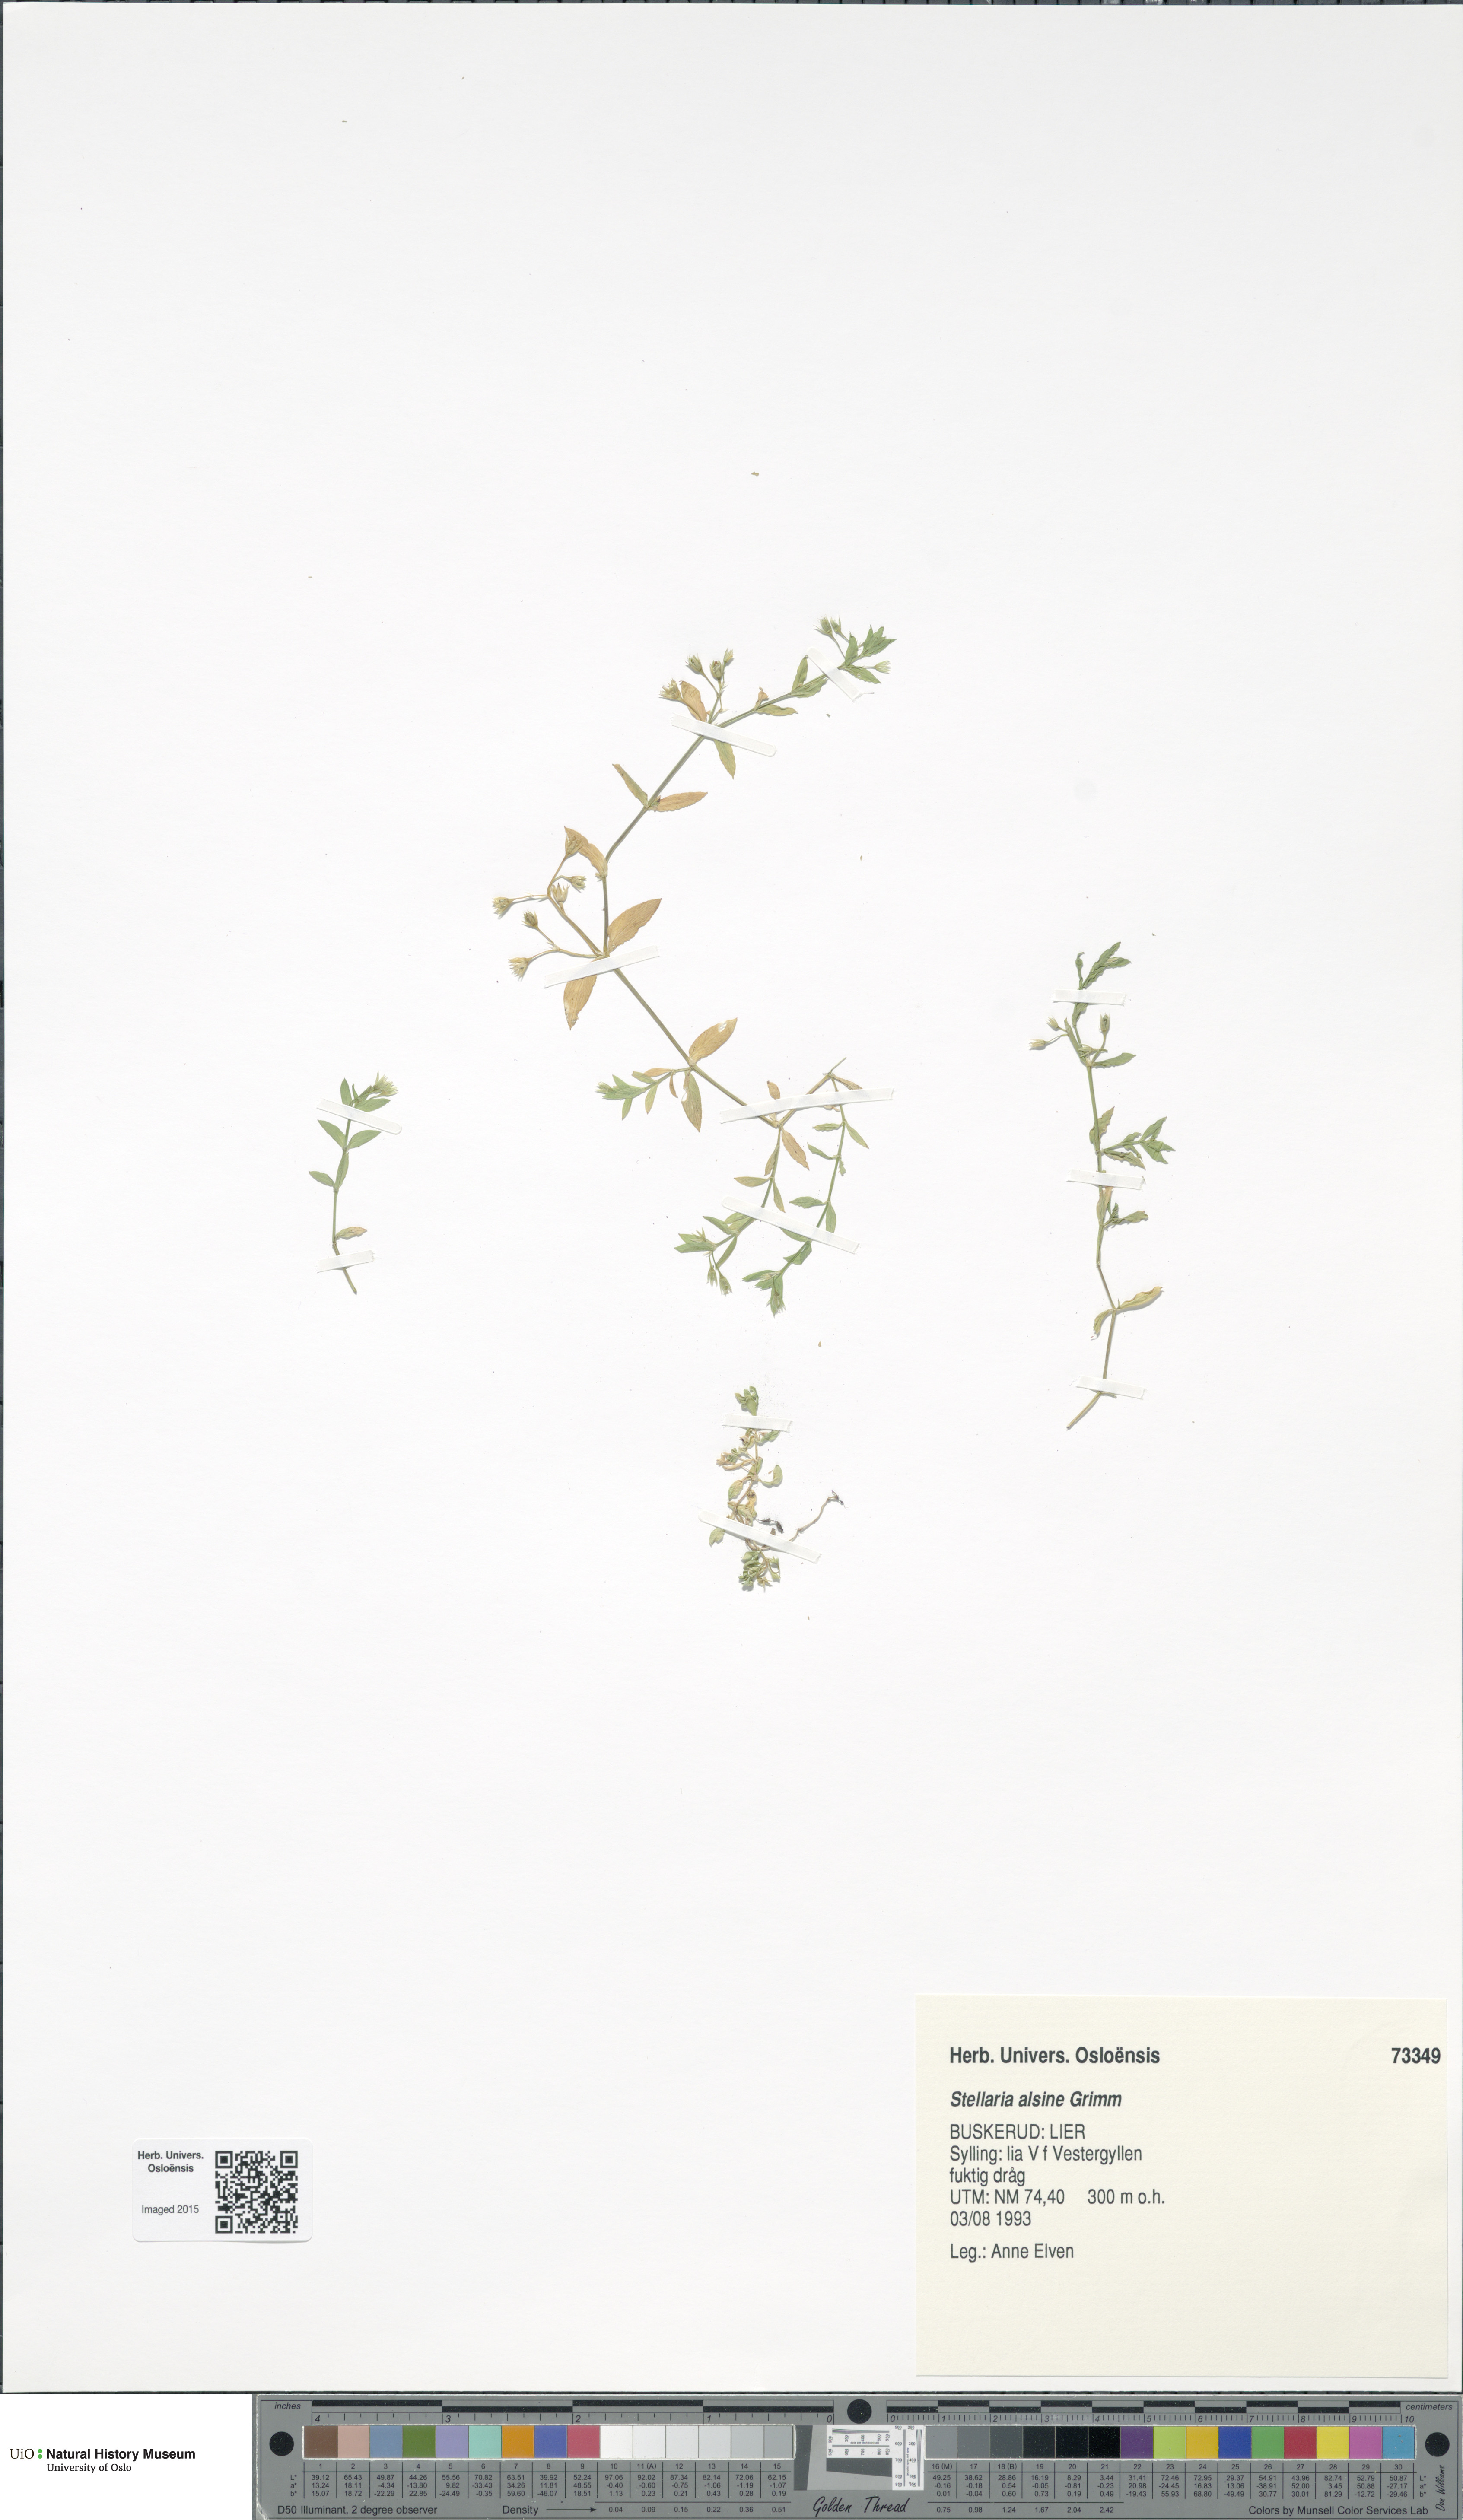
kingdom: Plantae
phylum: Tracheophyta
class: Magnoliopsida
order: Caryophyllales
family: Caryophyllaceae
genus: Stellaria
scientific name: Stellaria alsine
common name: Bog stitchwort
